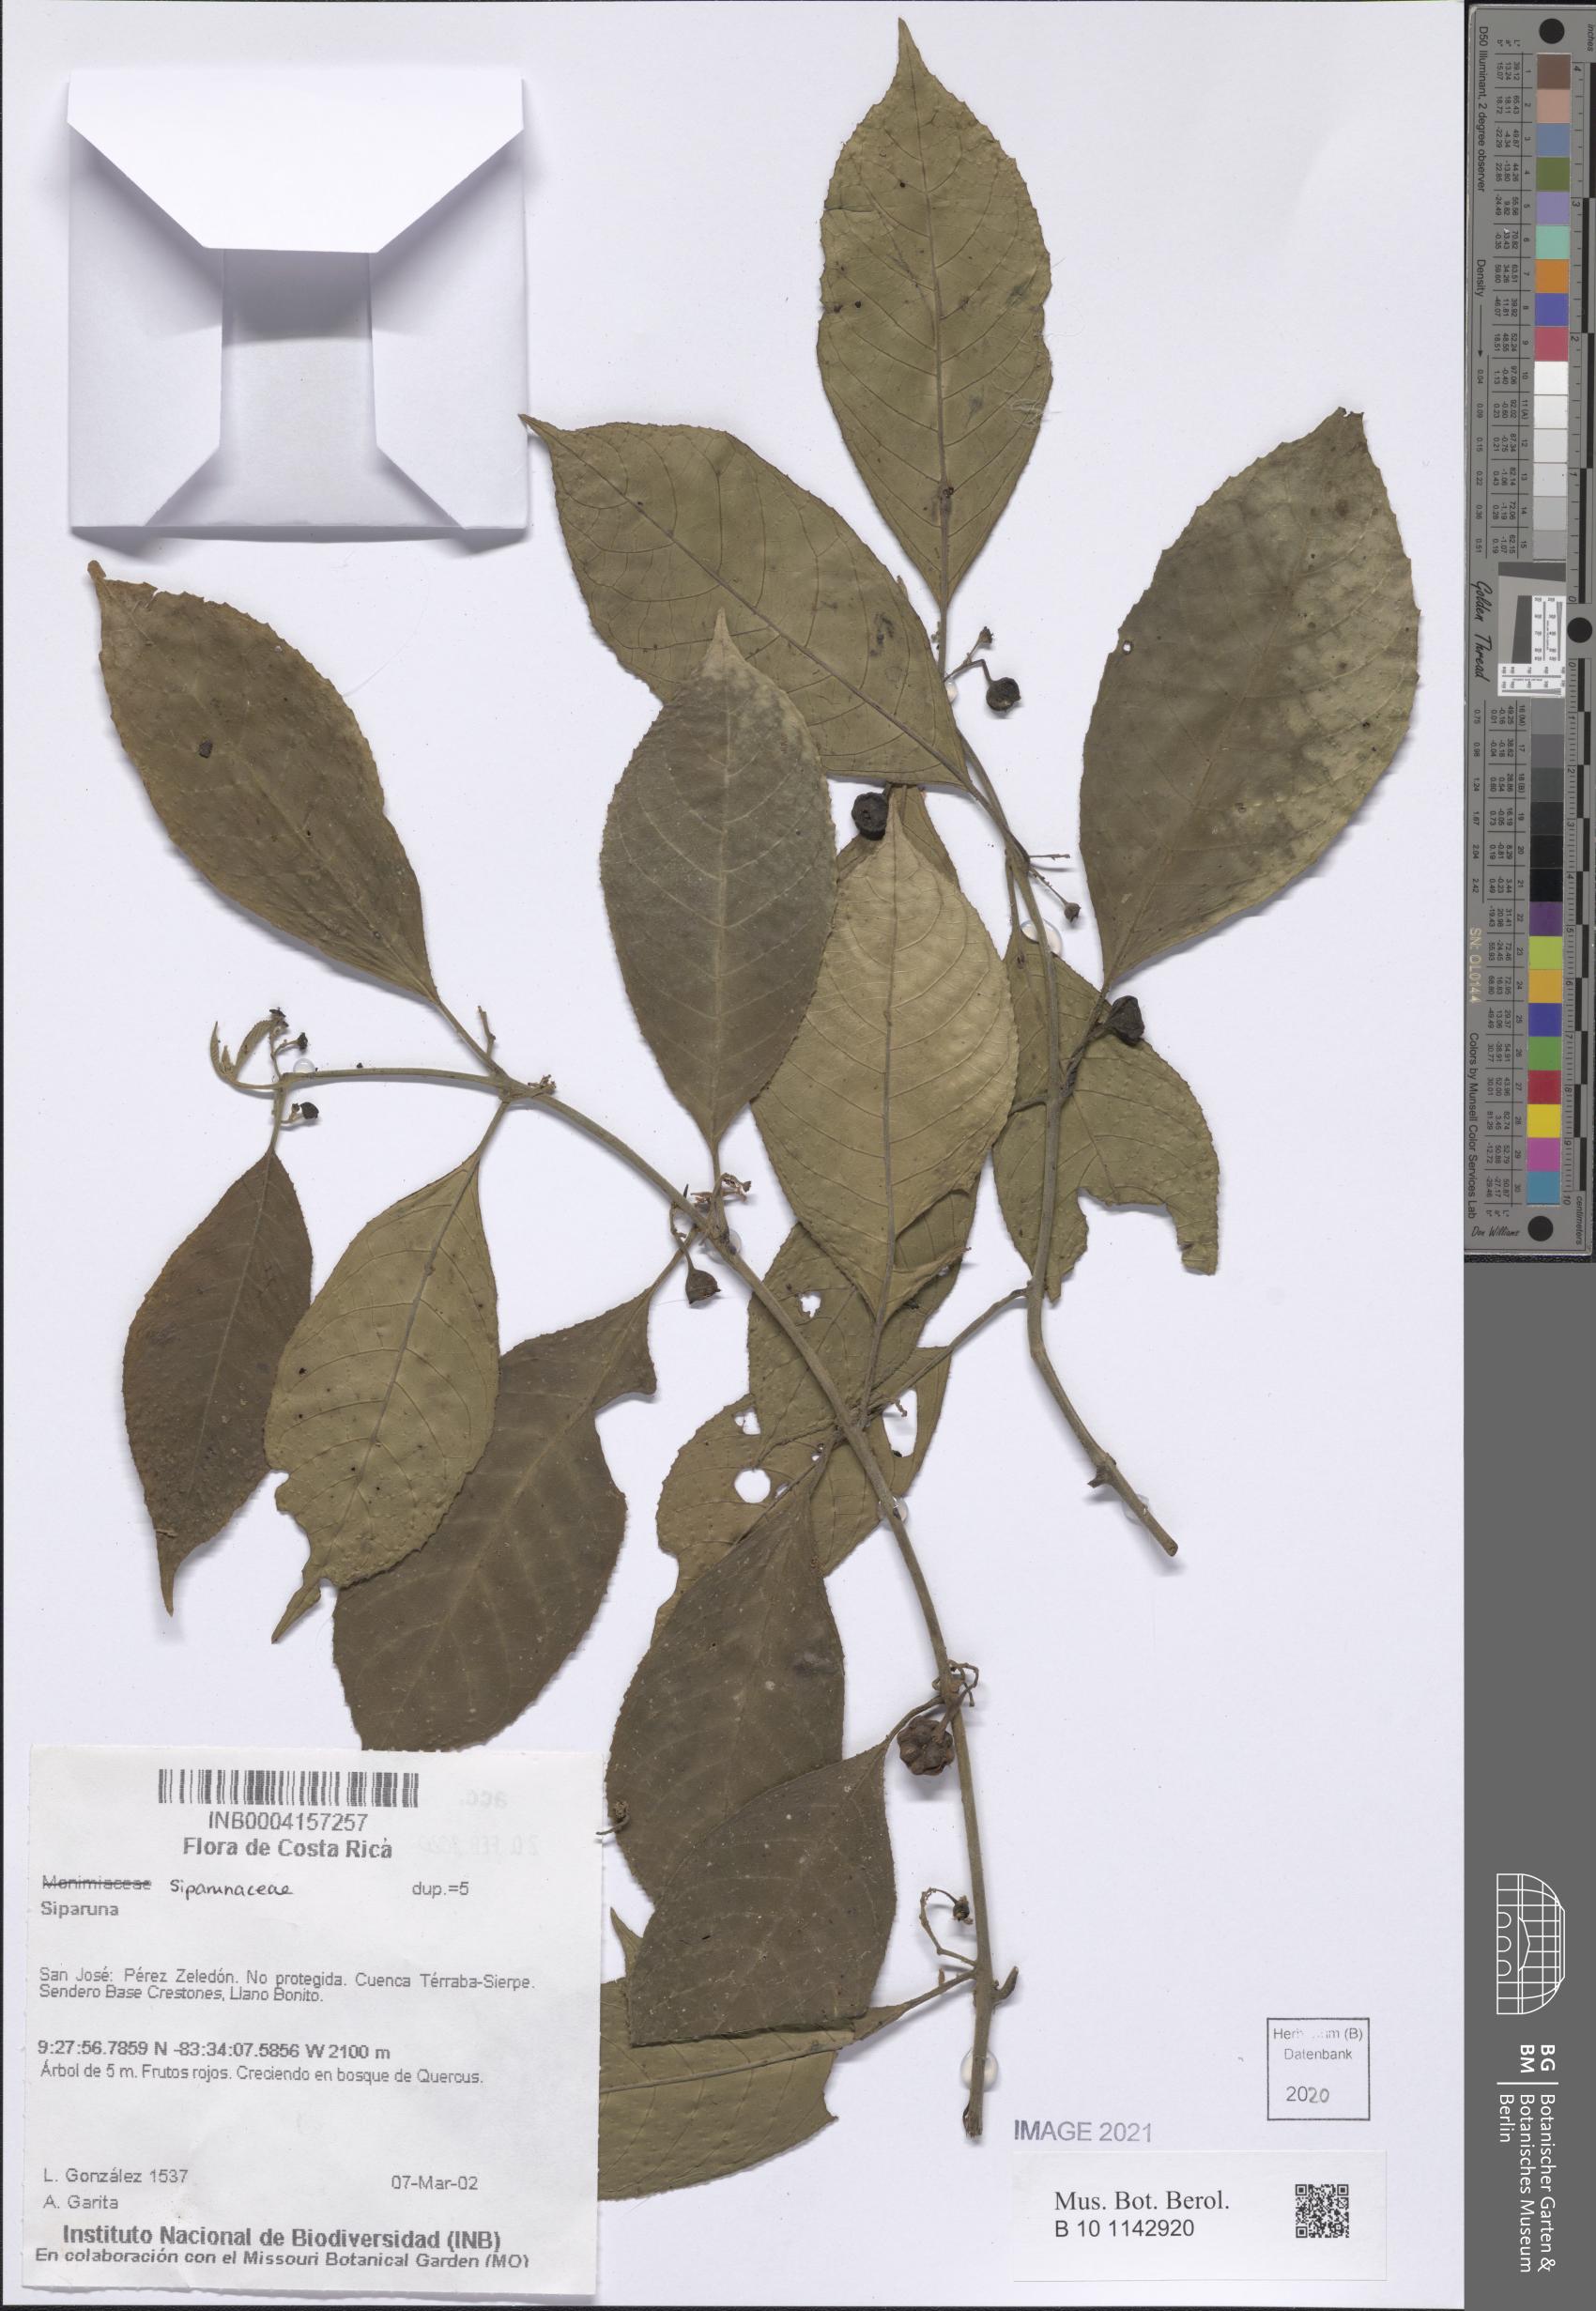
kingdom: Plantae
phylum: Tracheophyta
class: Magnoliopsida
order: Laurales
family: Siparunaceae
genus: Siparuna
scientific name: Siparuna
